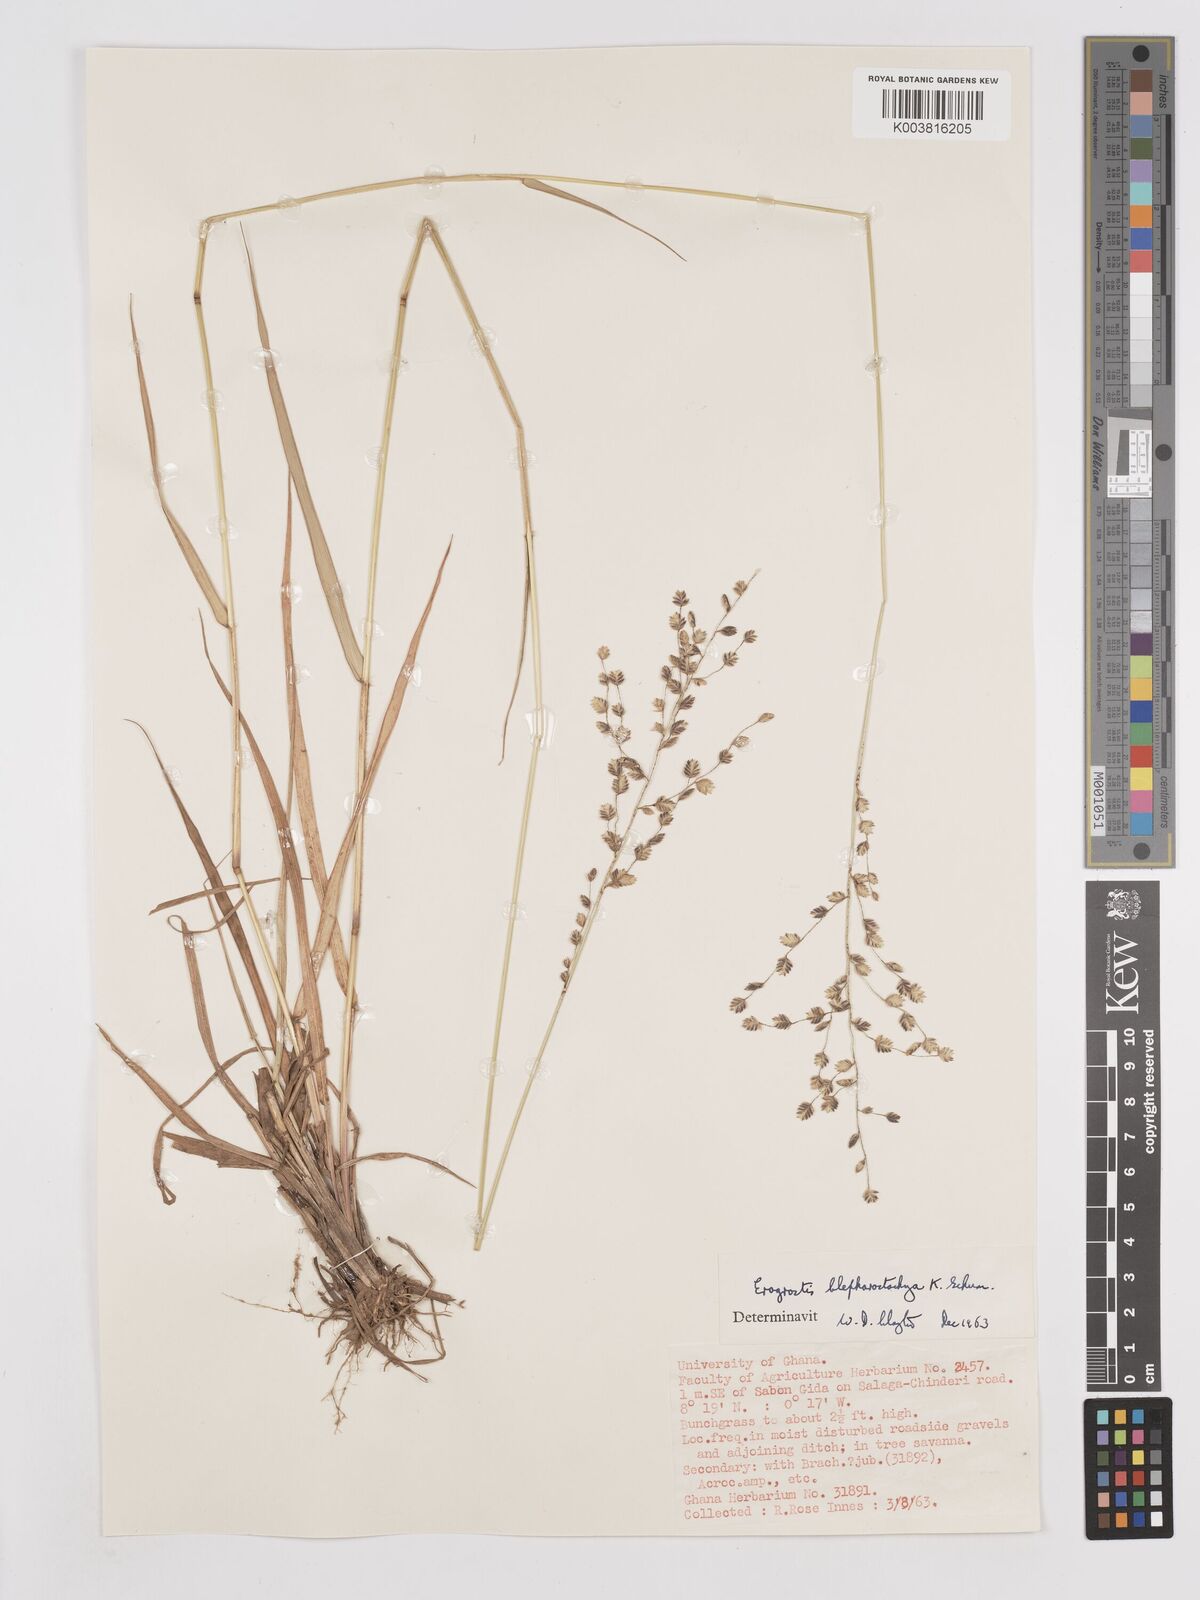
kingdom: Plantae
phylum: Tracheophyta
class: Liliopsida
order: Poales
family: Poaceae
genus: Eragrostis
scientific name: Eragrostis blepharostachya
